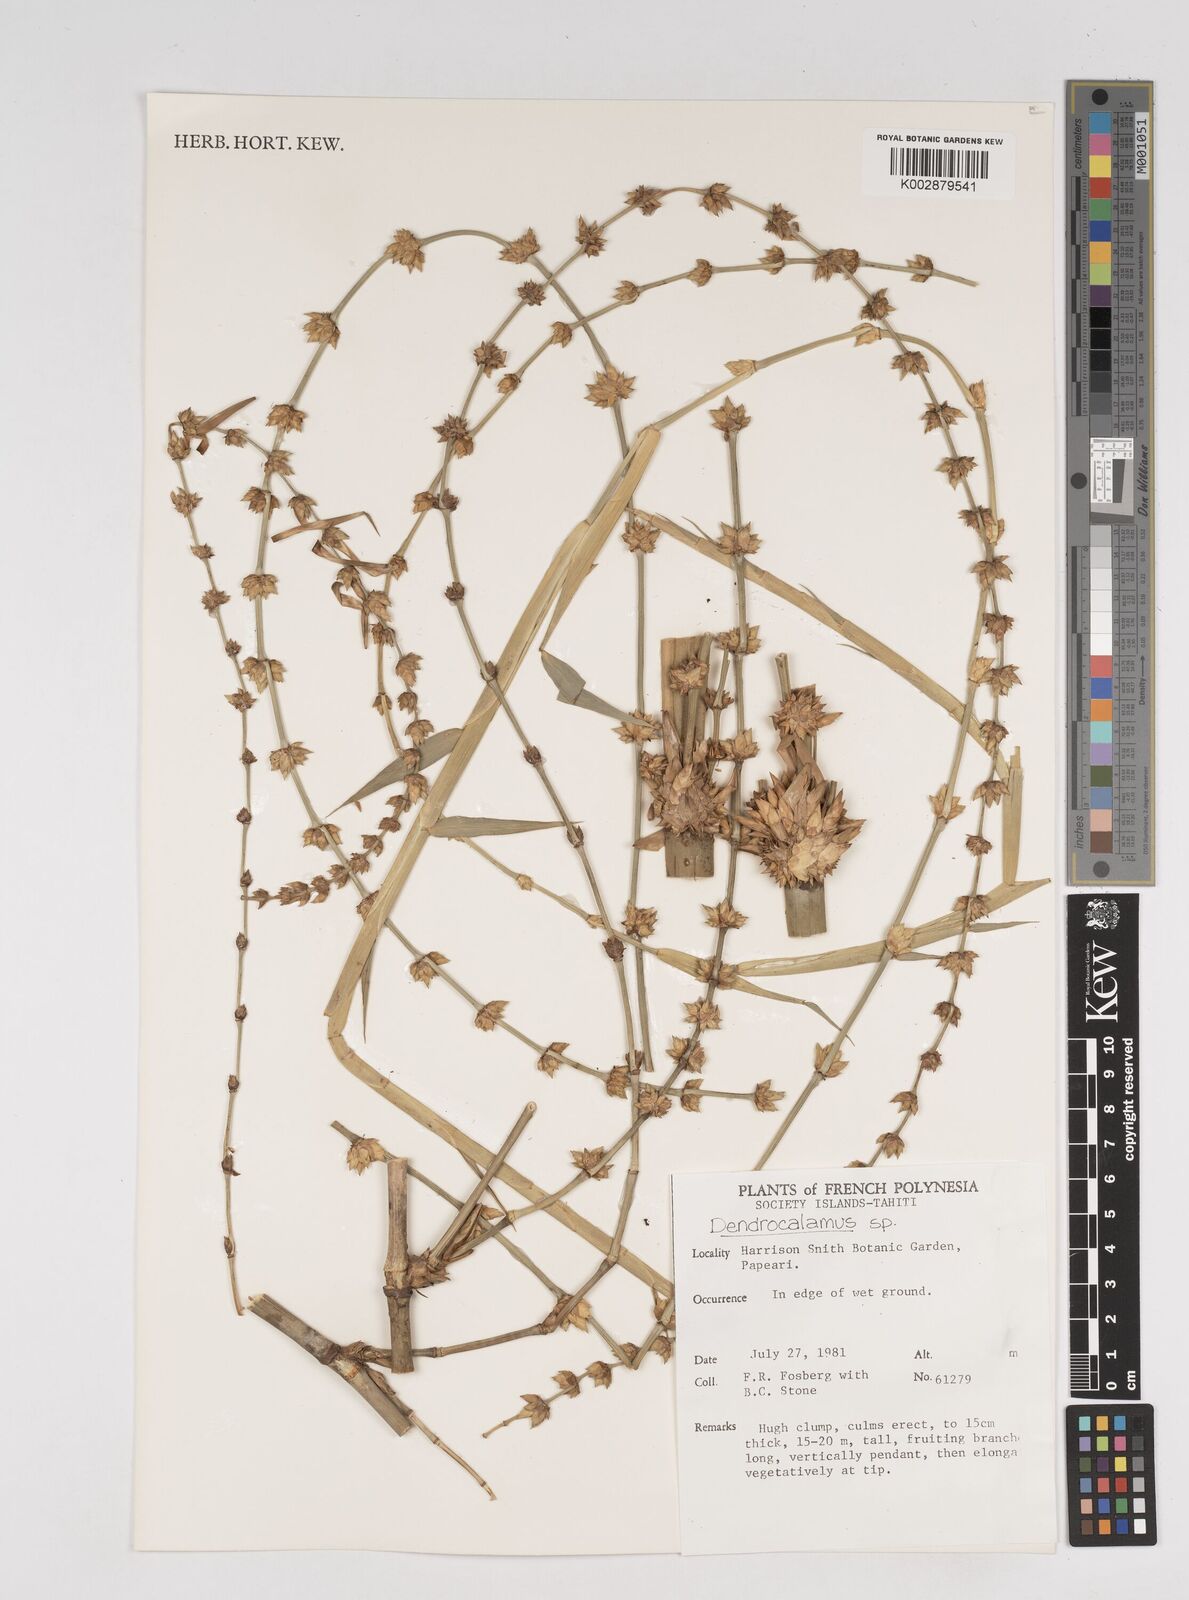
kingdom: Plantae
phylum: Tracheophyta
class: Liliopsida
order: Poales
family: Poaceae
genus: Dendrocalamus
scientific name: Dendrocalamus
